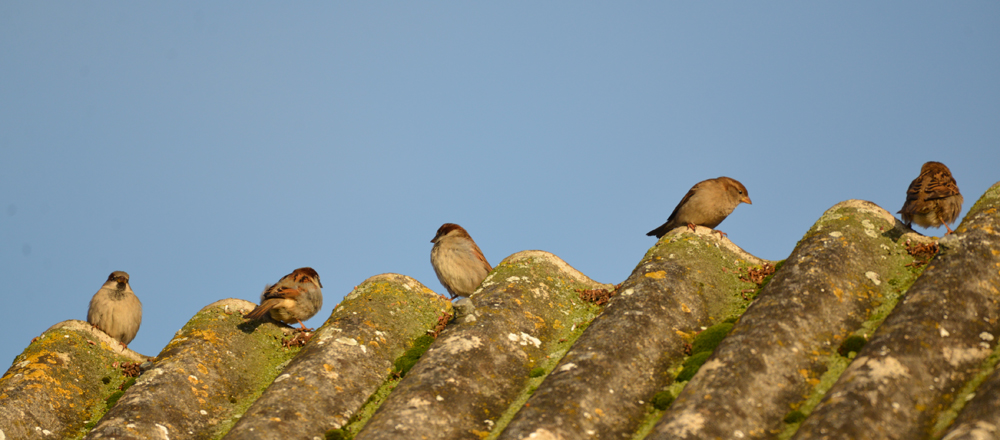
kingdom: Animalia
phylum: Chordata
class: Aves
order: Passeriformes
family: Passeridae
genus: Passer
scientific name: Passer domesticus
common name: House sparrow
